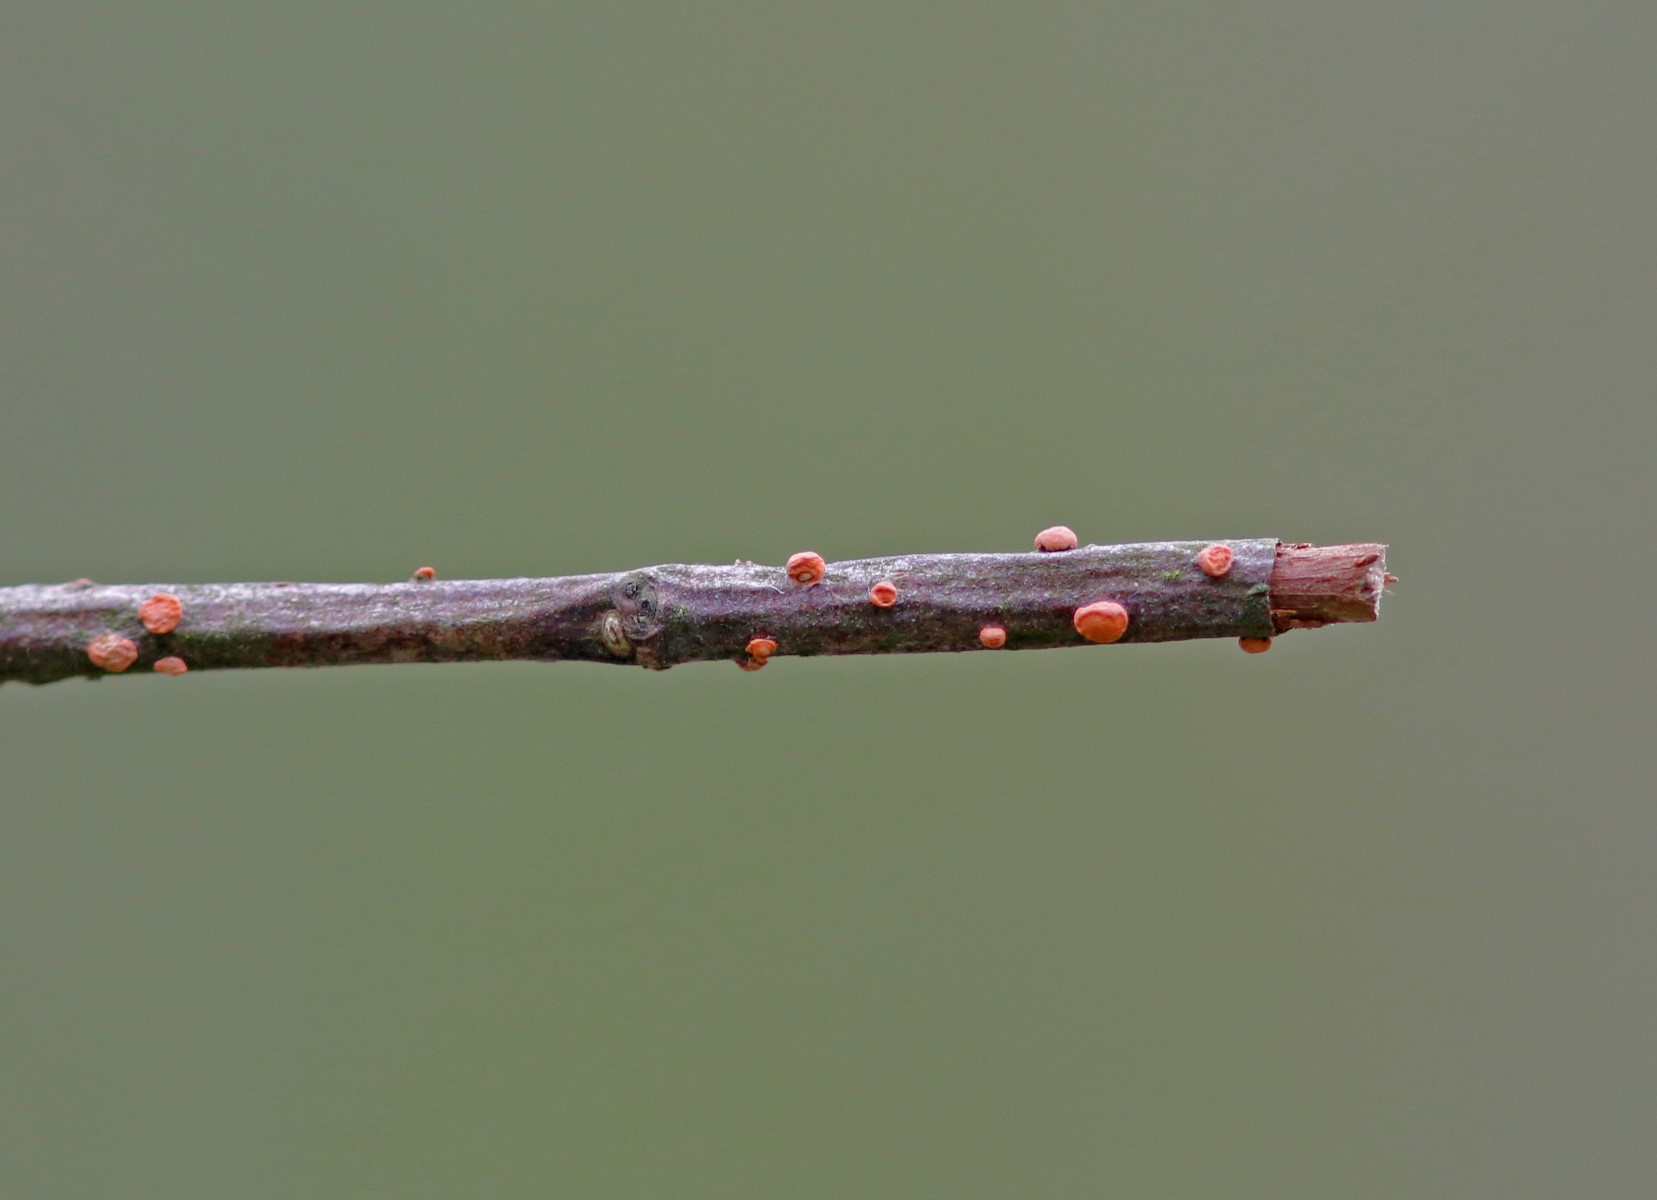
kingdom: Fungi
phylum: Ascomycota
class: Sordariomycetes
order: Hypocreales
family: Nectriaceae
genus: Nectria
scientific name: Nectria cinnabarina
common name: almindelig cinnobersvamp
